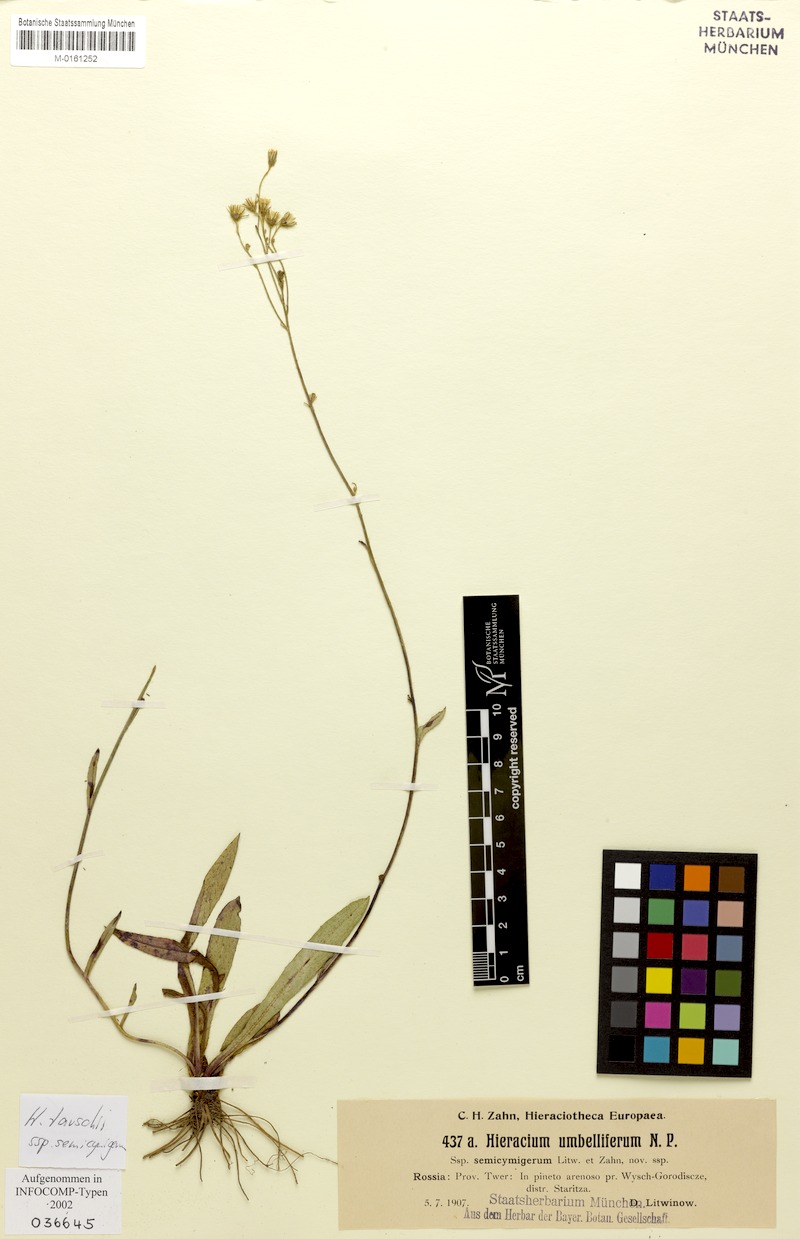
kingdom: Plantae
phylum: Tracheophyta
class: Magnoliopsida
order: Asterales
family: Asteraceae
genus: Pilosella
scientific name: Pilosella densiflora
